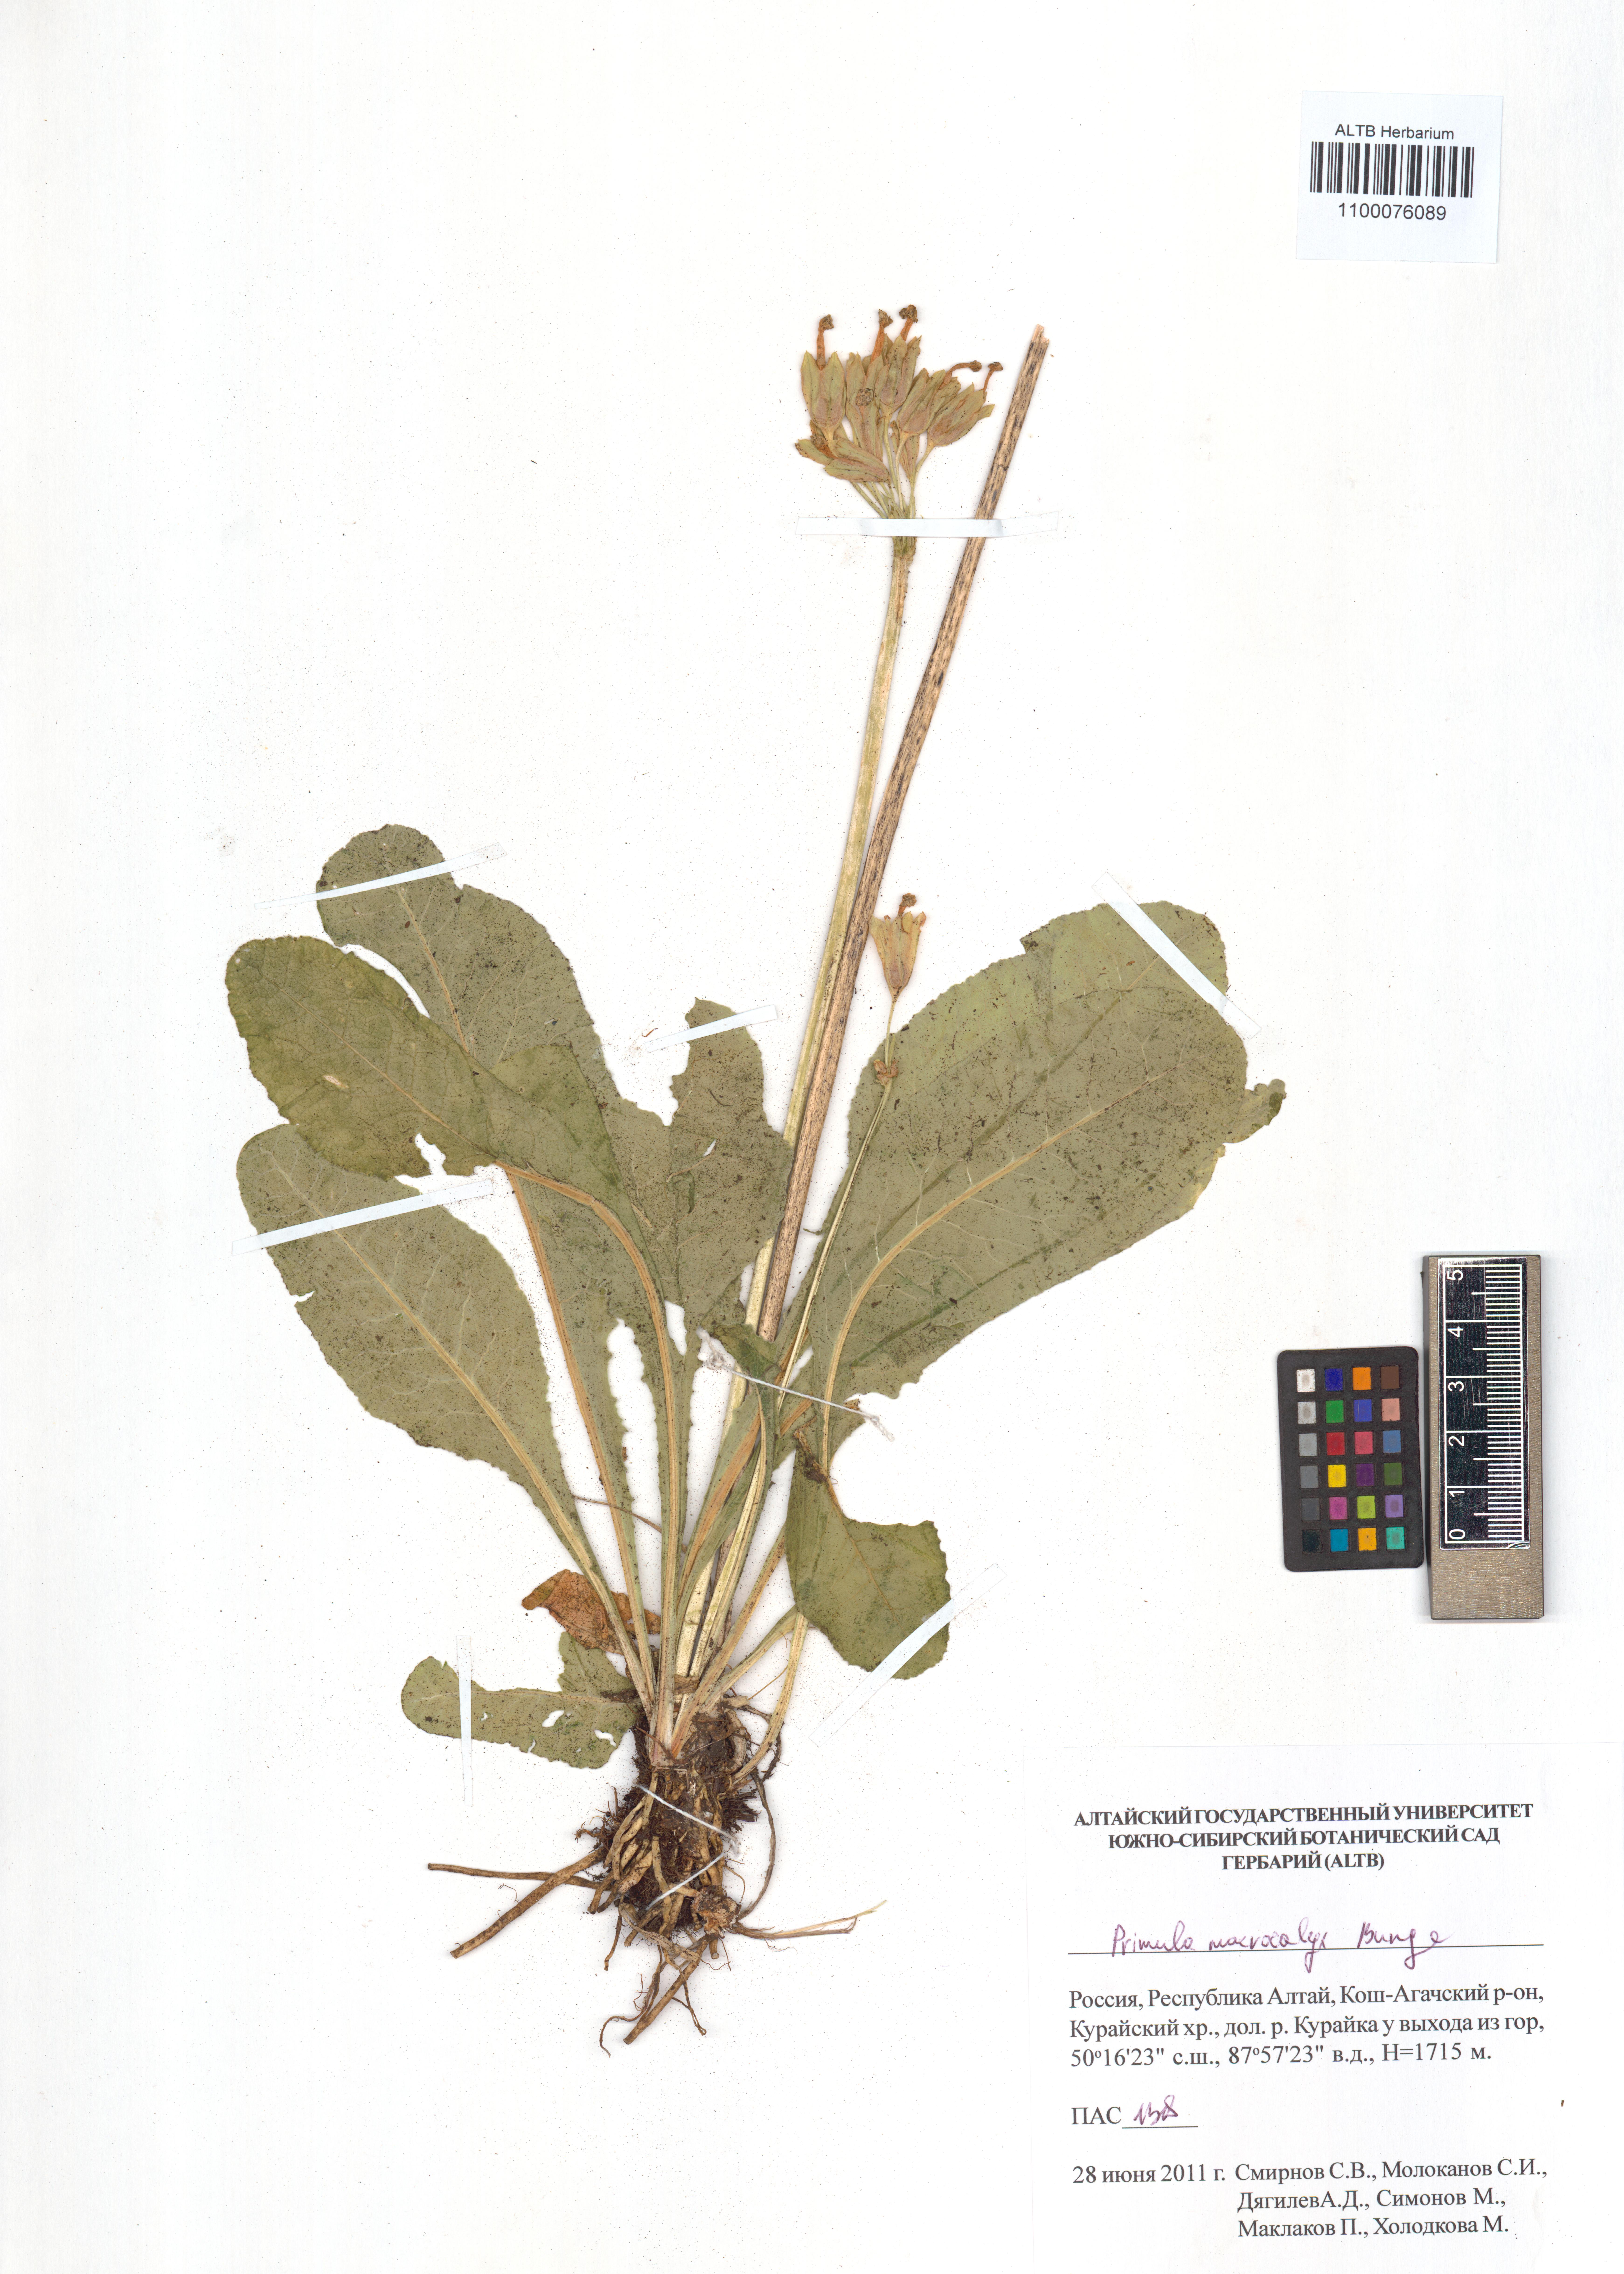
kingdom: Plantae
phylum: Tracheophyta
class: Magnoliopsida
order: Ericales
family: Primulaceae
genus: Primula
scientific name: Primula veris
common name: Cowslip
